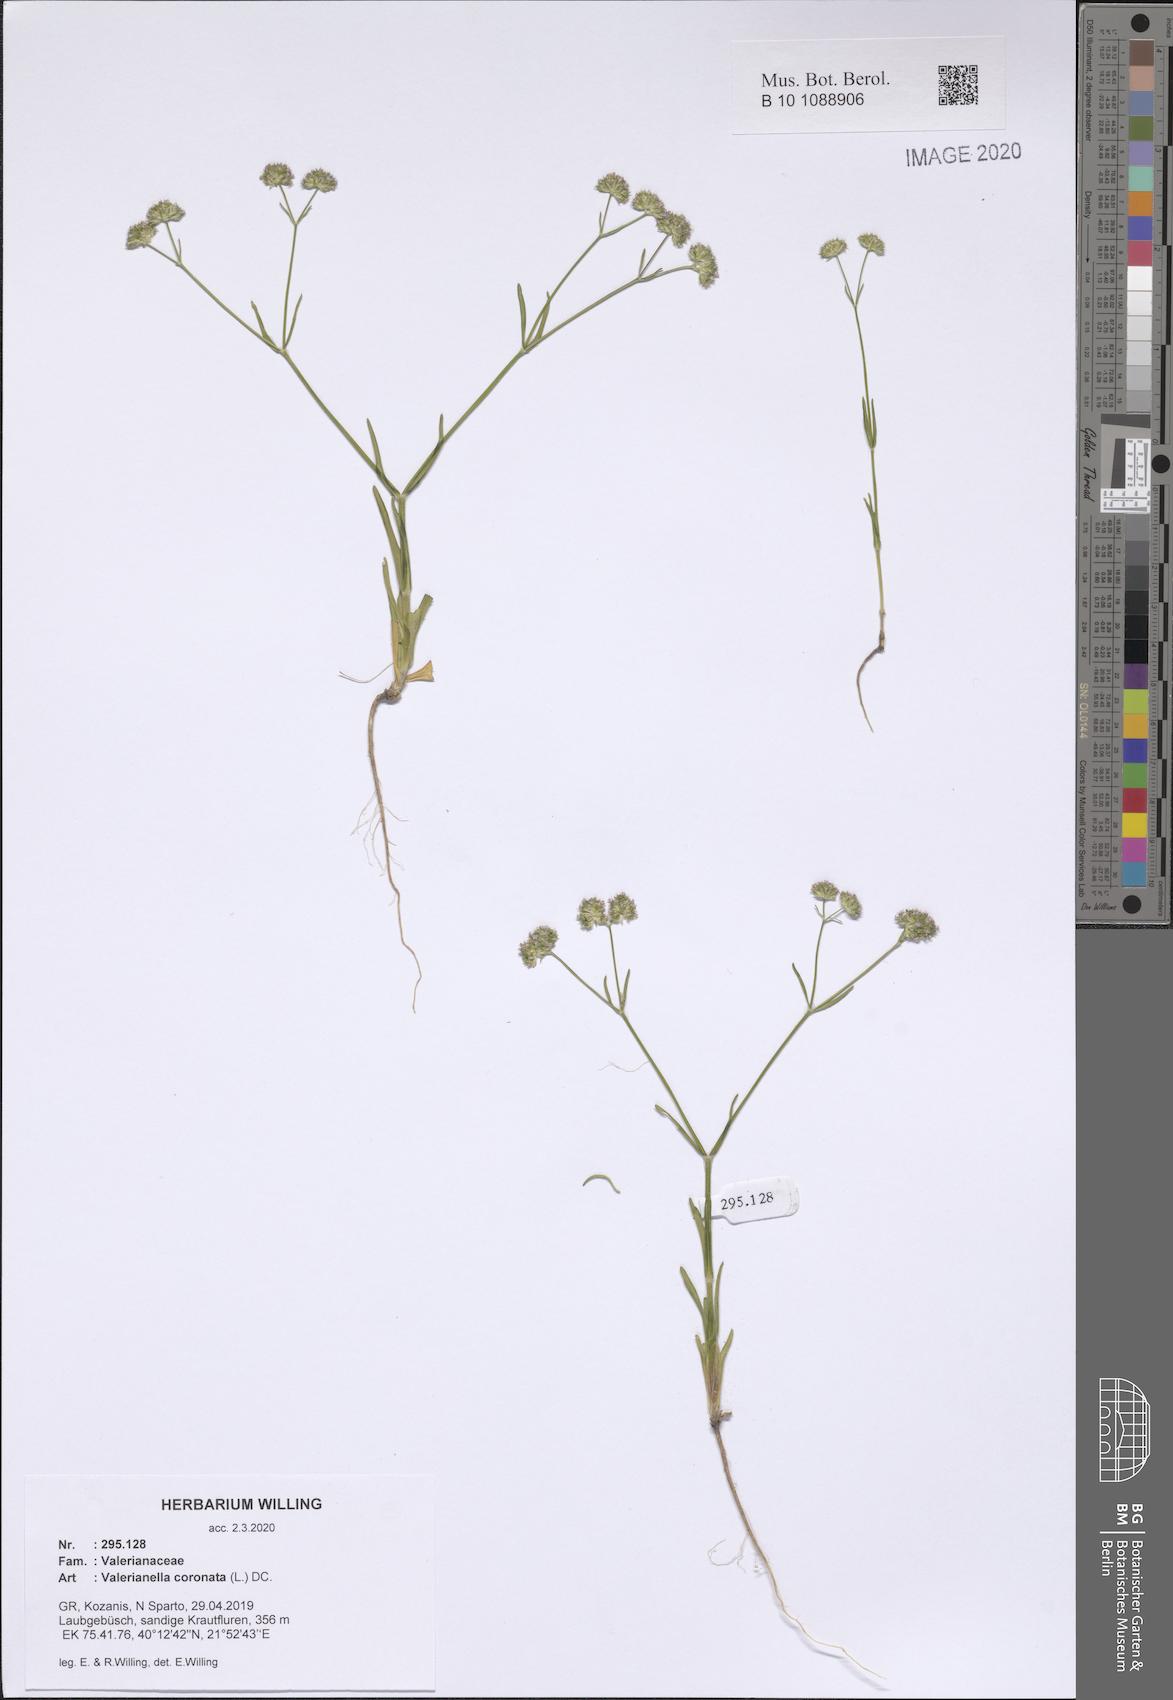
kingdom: Plantae
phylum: Tracheophyta
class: Magnoliopsida
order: Dipsacales
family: Caprifoliaceae
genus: Valerianella
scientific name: Valerianella coronata
